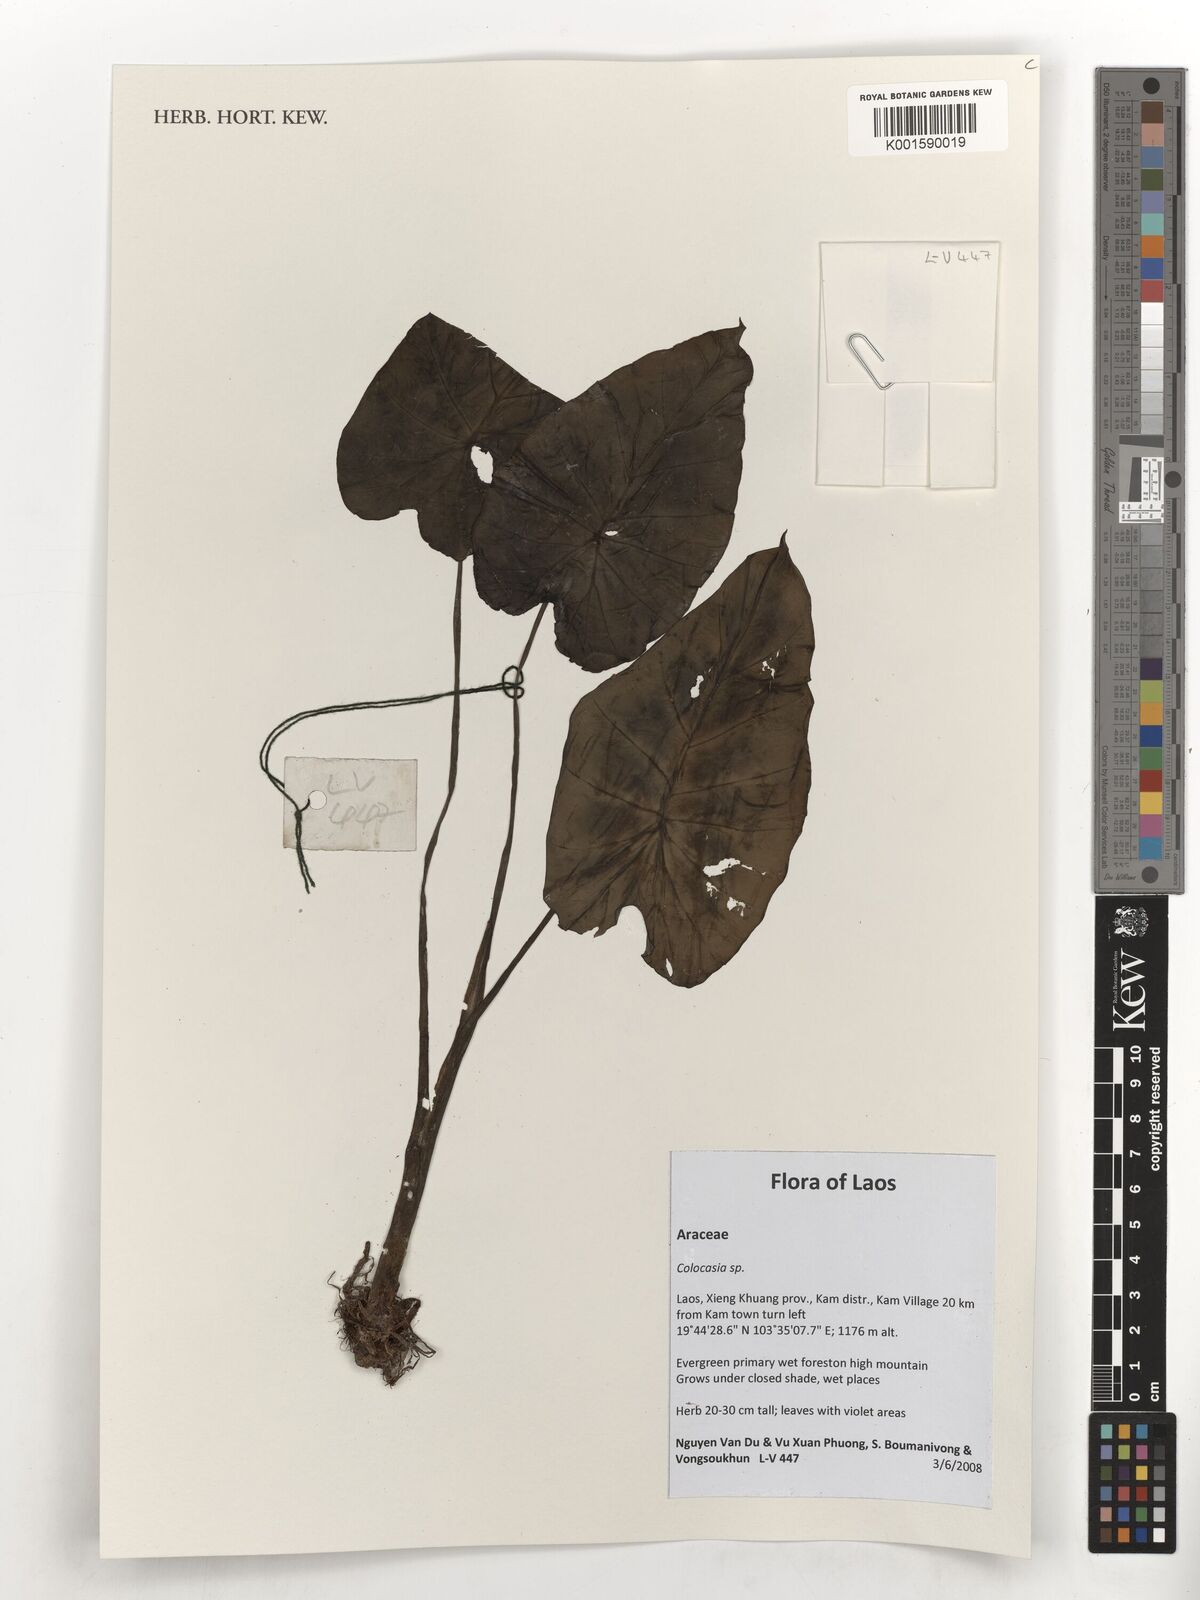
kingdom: Plantae
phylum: Tracheophyta
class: Liliopsida
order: Alismatales
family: Araceae
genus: Colocasia
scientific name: Colocasia spec
